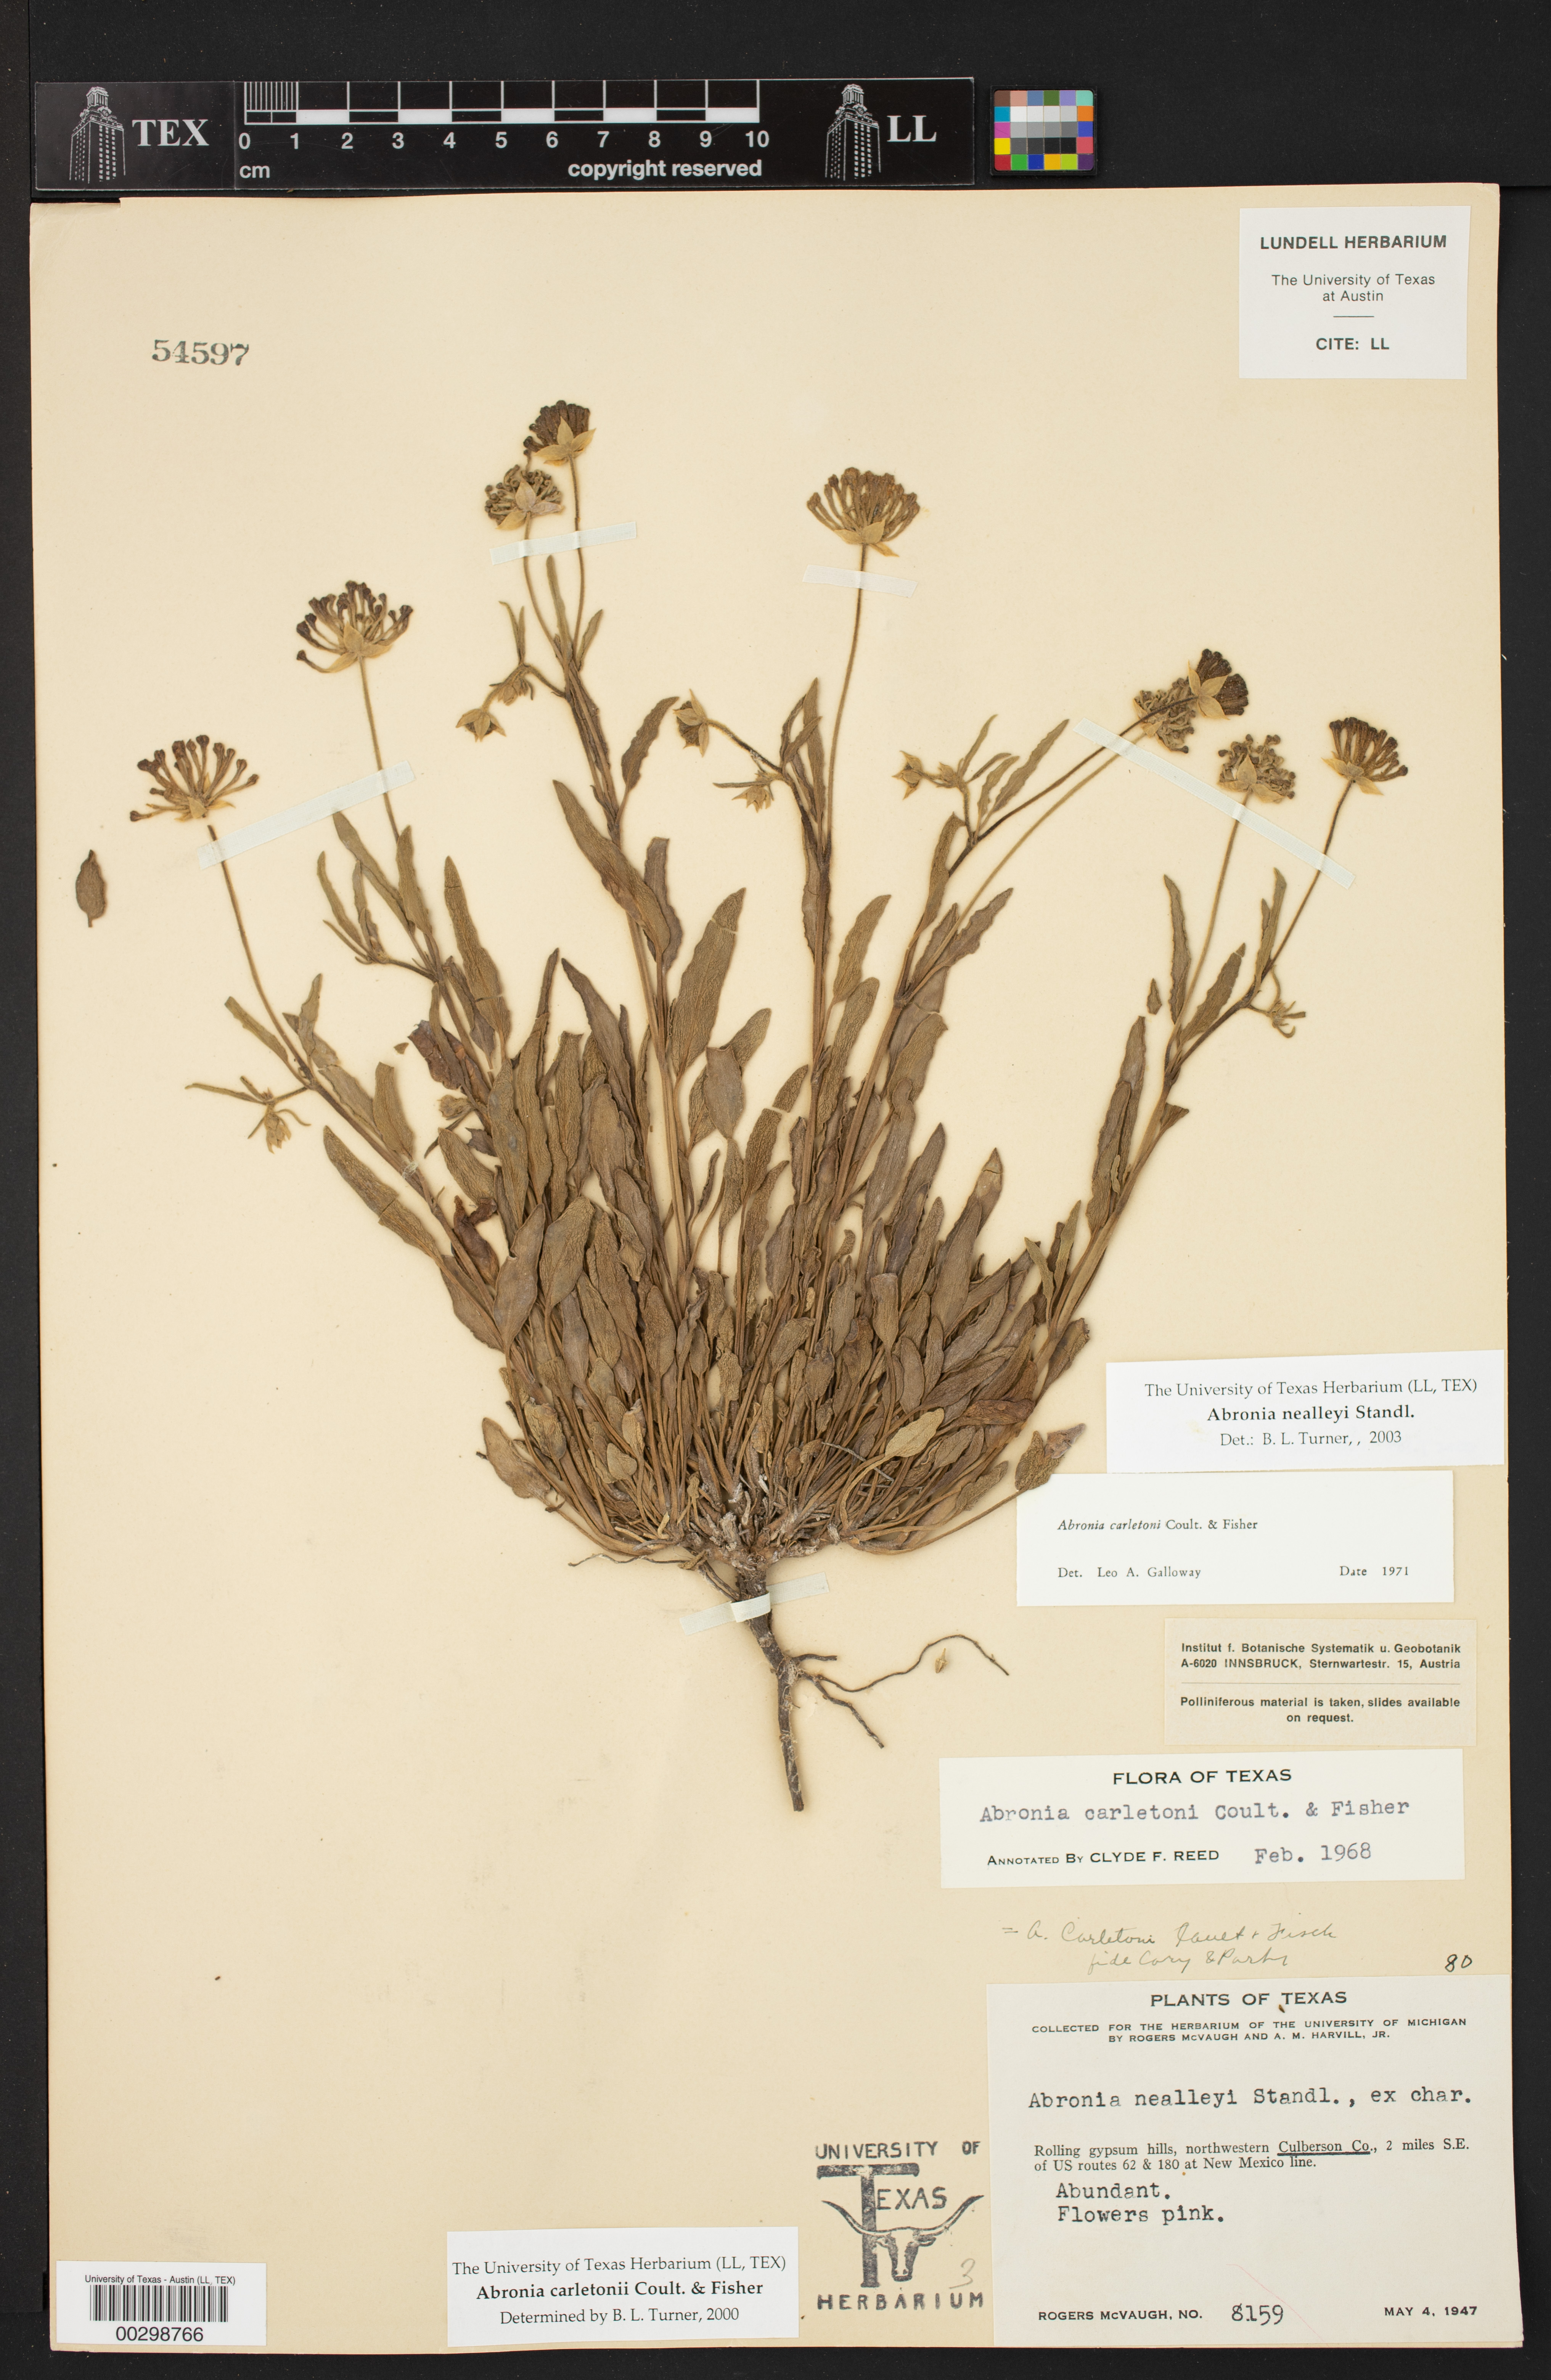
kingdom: Plantae
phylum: Tracheophyta
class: Magnoliopsida
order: Caryophyllales
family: Nyctaginaceae
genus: Abronia
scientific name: Abronia carletonii
